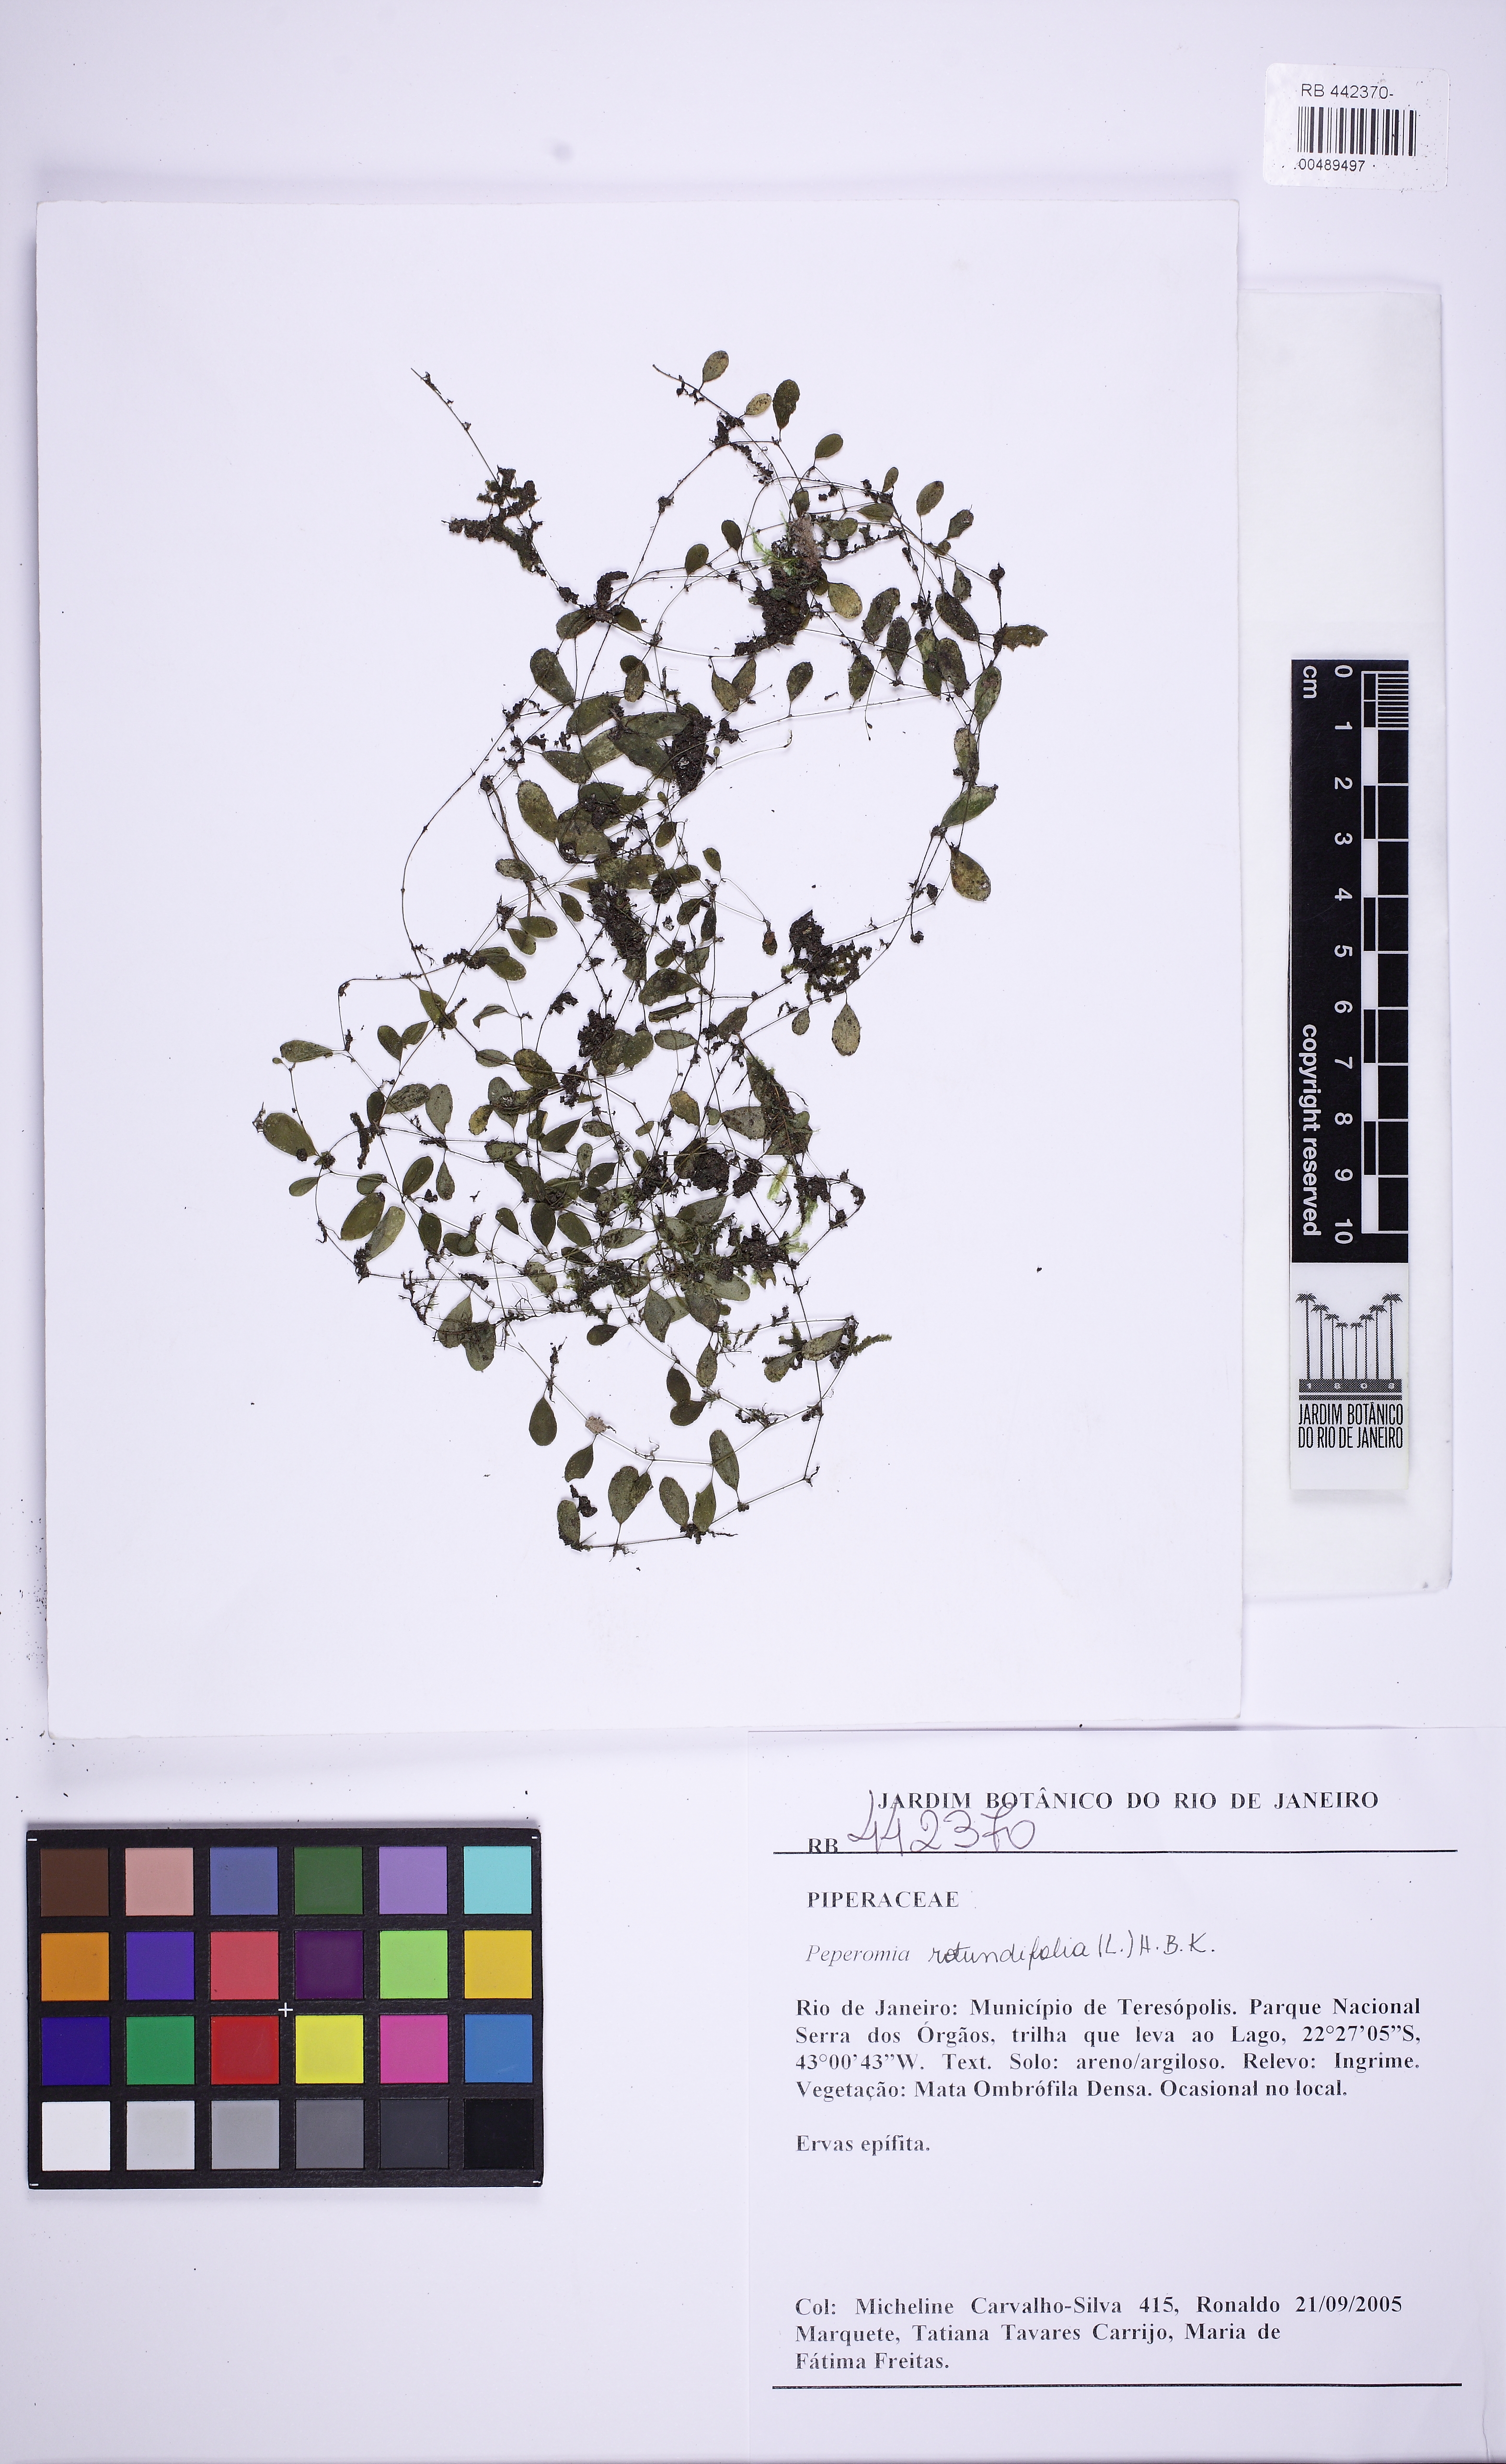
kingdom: Plantae
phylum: Tracheophyta
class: Magnoliopsida
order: Piperales
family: Piperaceae
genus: Peperomia
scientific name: Peperomia rotundifolia
